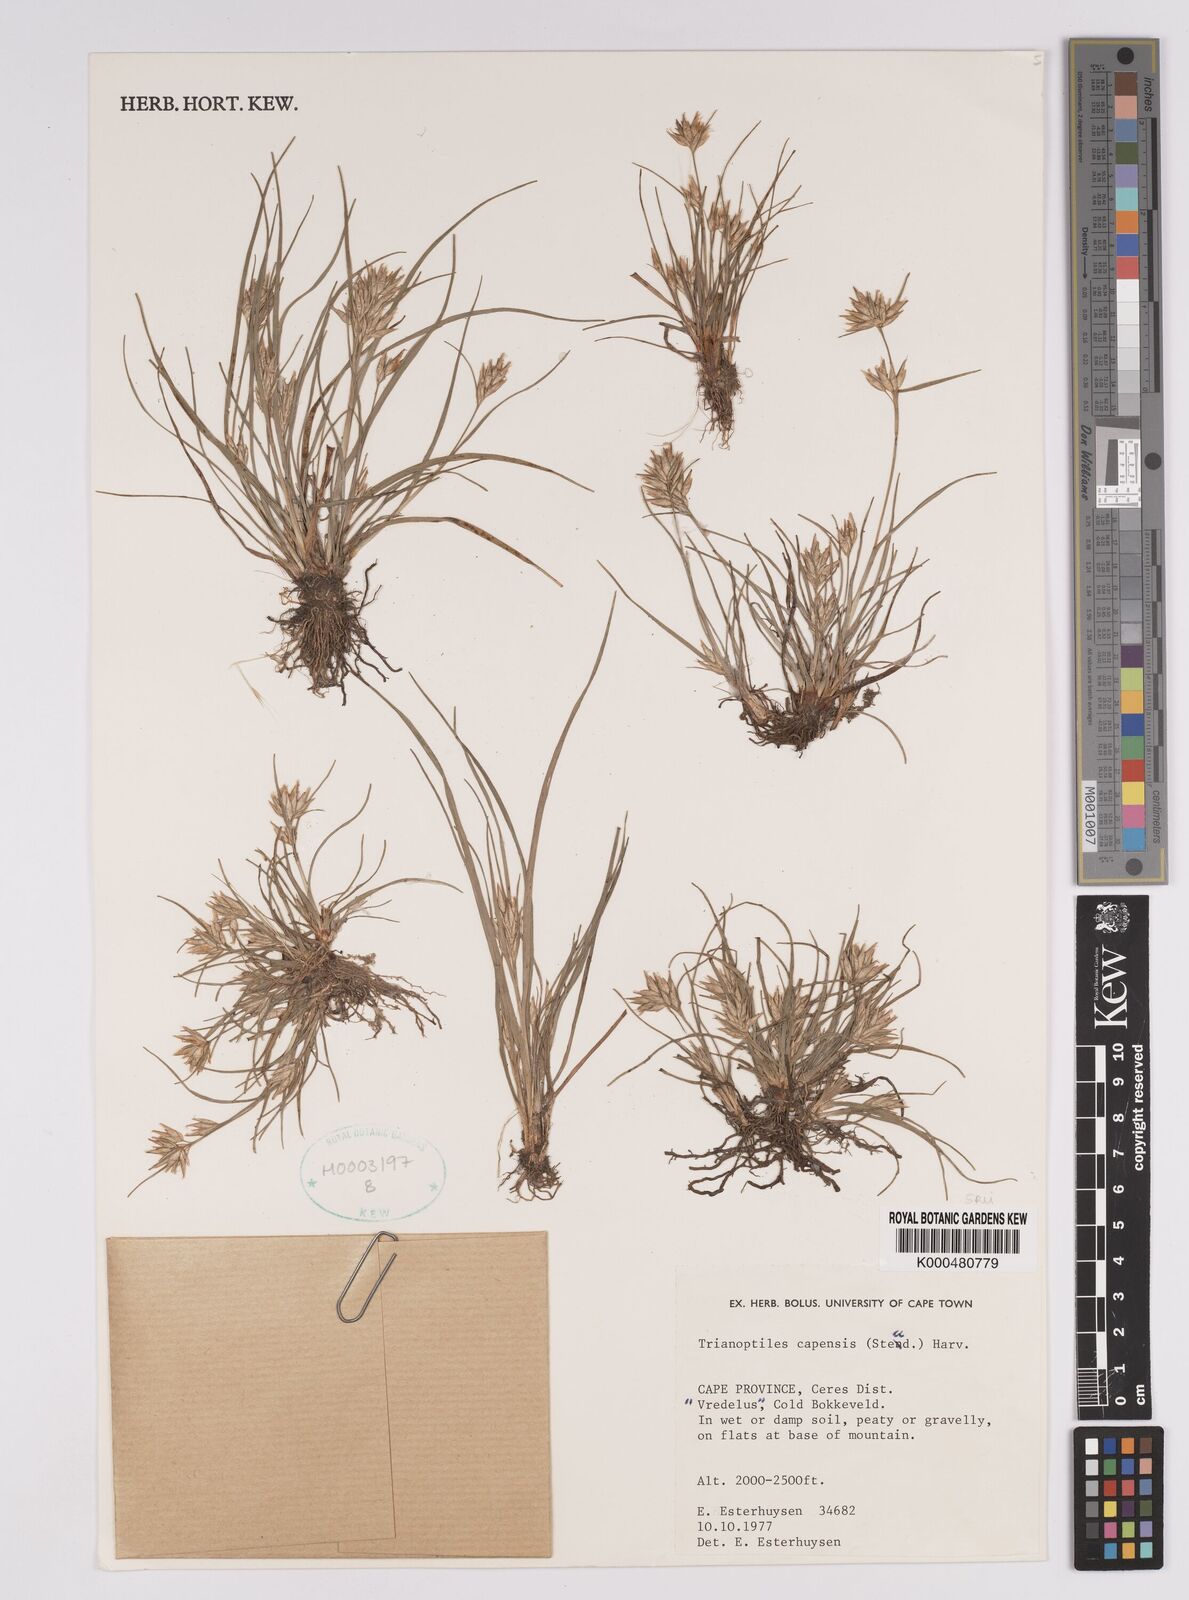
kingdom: Plantae
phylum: Tracheophyta
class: Liliopsida
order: Poales
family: Cyperaceae
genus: Trianoptiles
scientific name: Trianoptiles capensis
